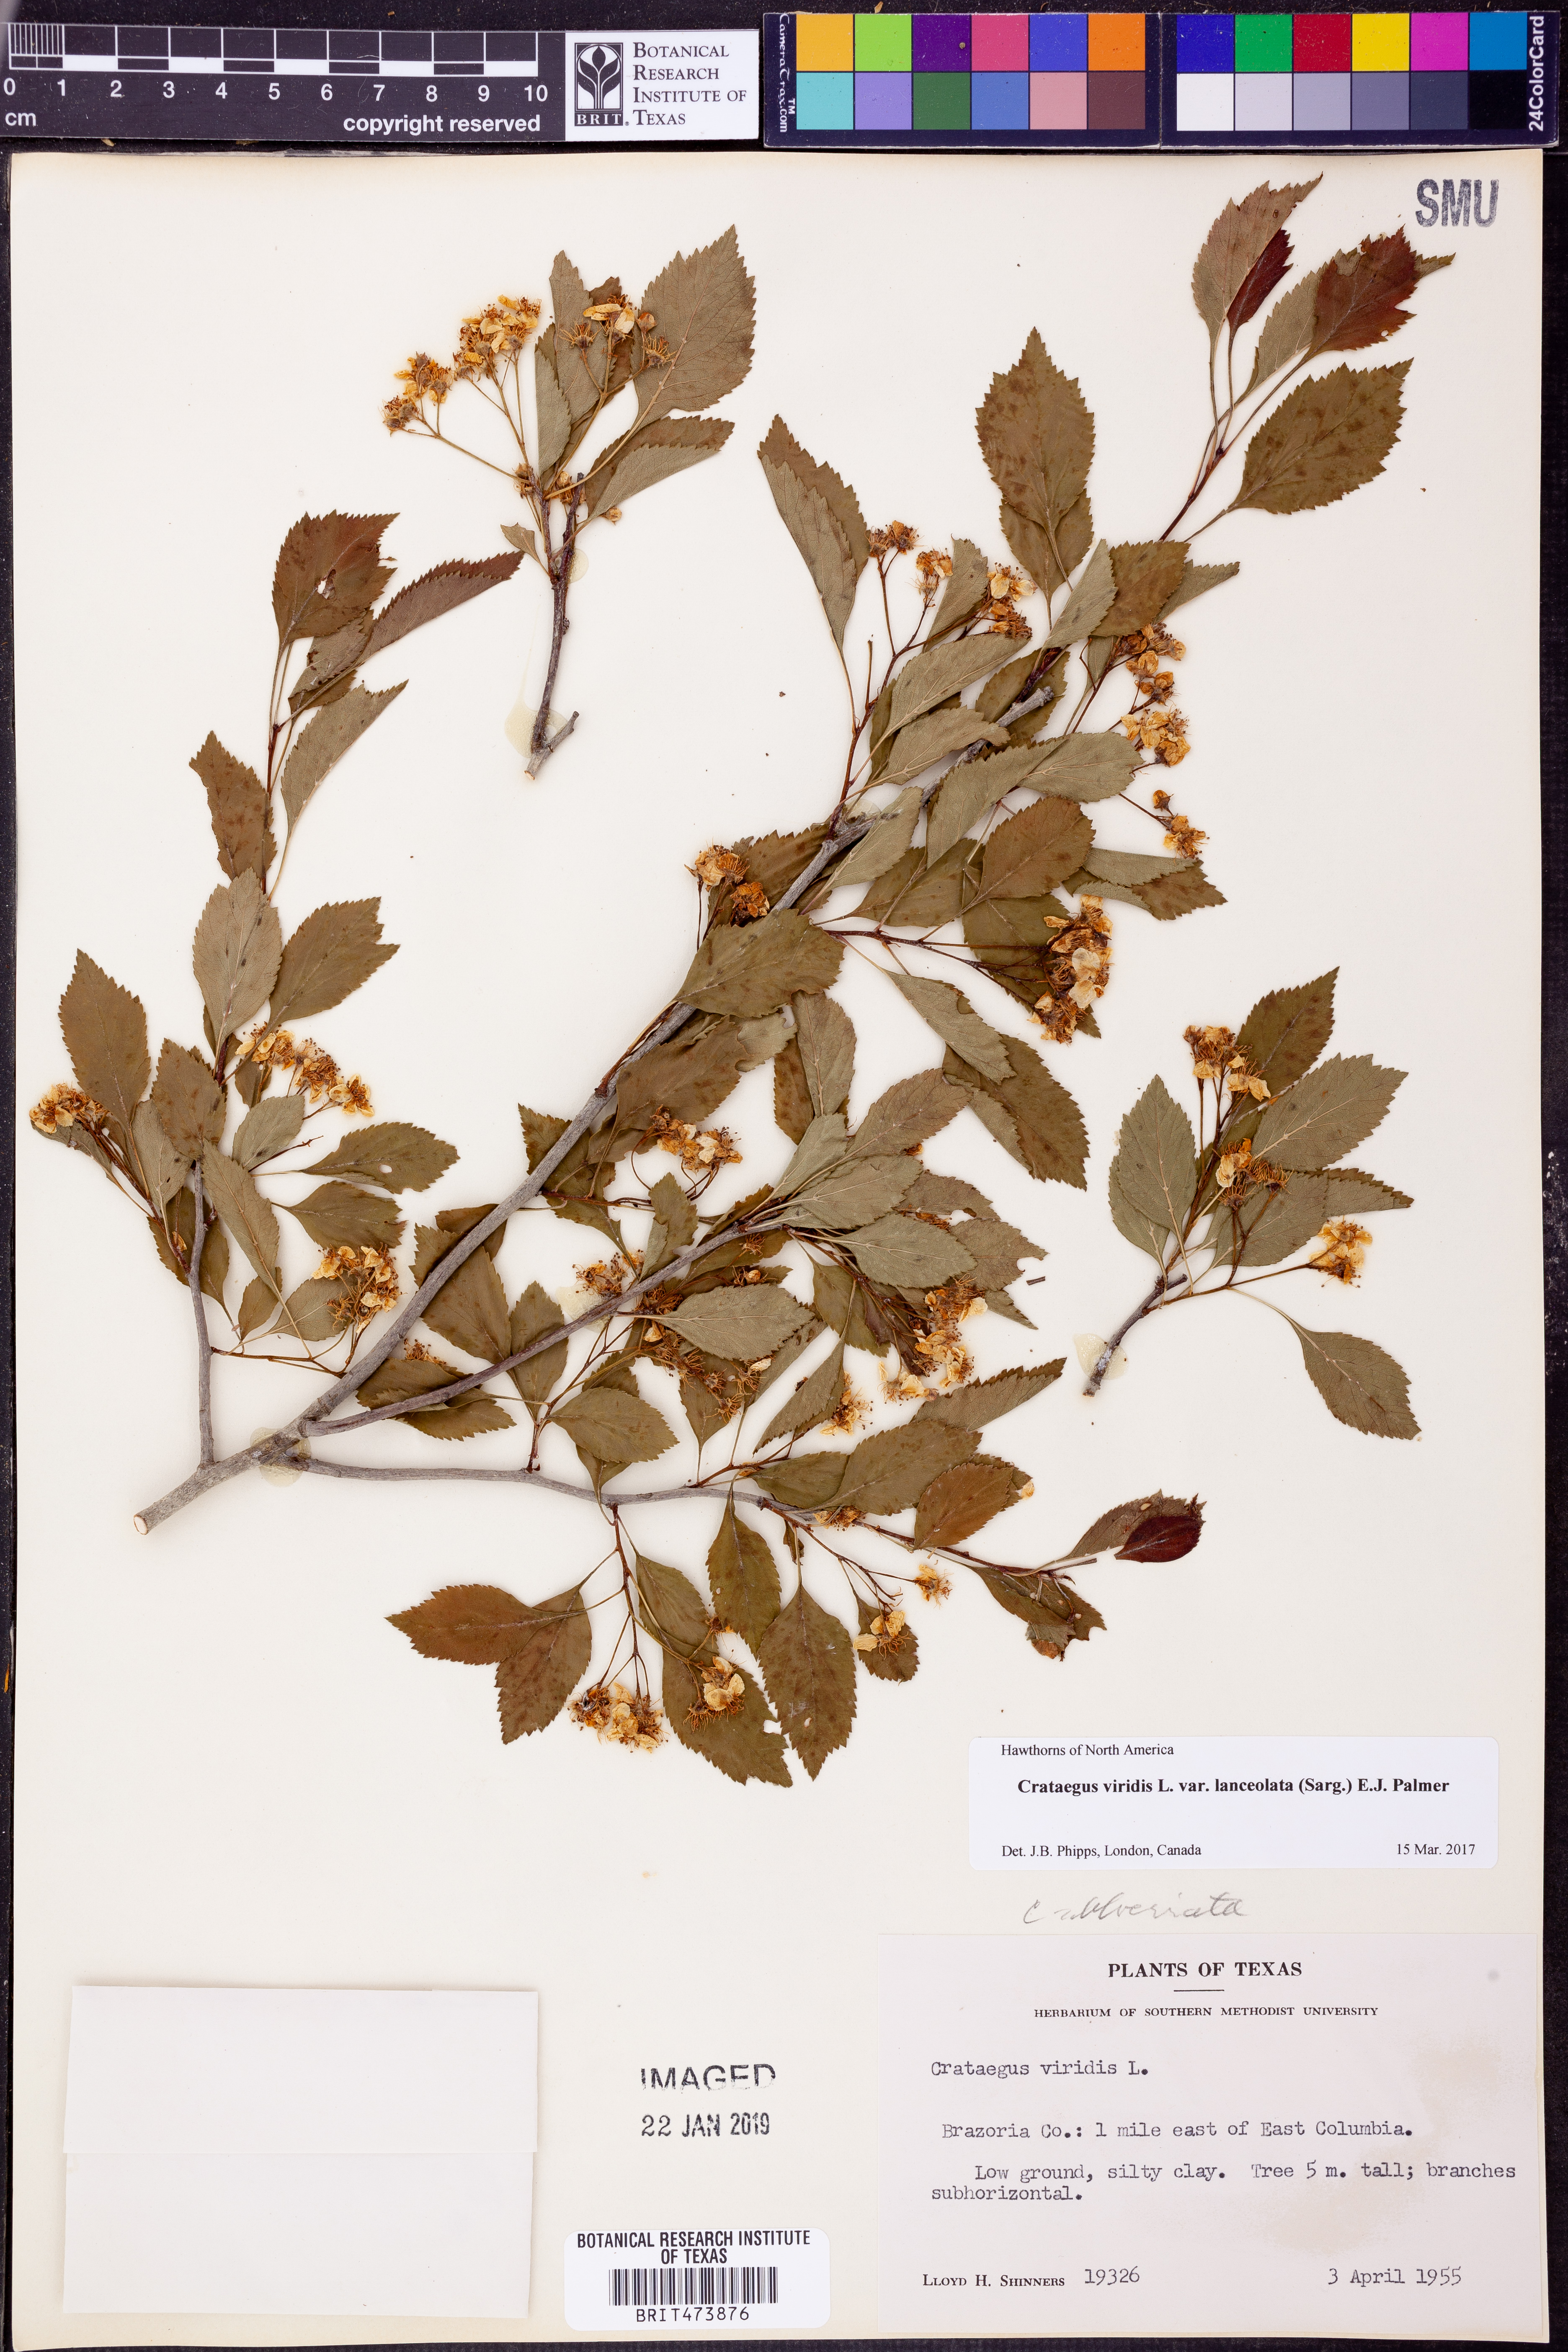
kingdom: Plantae
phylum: Tracheophyta
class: Magnoliopsida
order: Rosales
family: Rosaceae
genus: Crataegus
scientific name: Crataegus viridis
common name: Southernthorn
